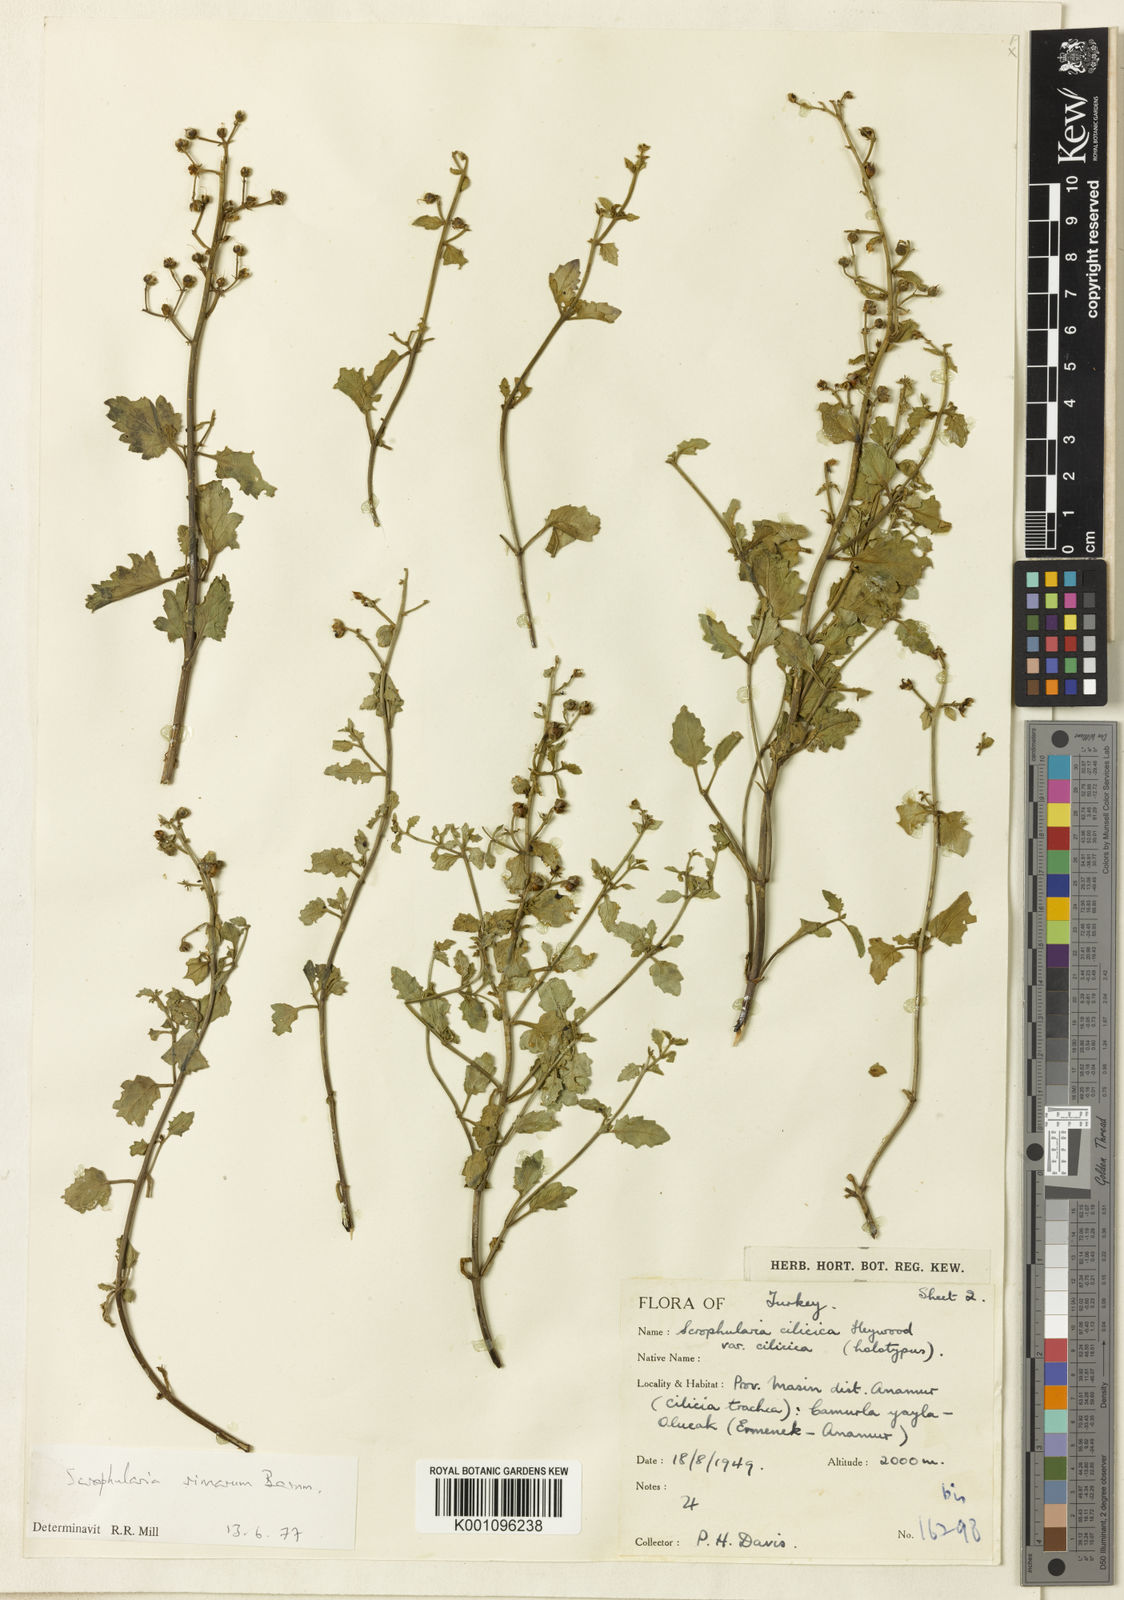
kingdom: Plantae
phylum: Tracheophyta
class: Magnoliopsida
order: Lamiales
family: Scrophulariaceae
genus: Scrophularia
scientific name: Scrophularia catariifolia
